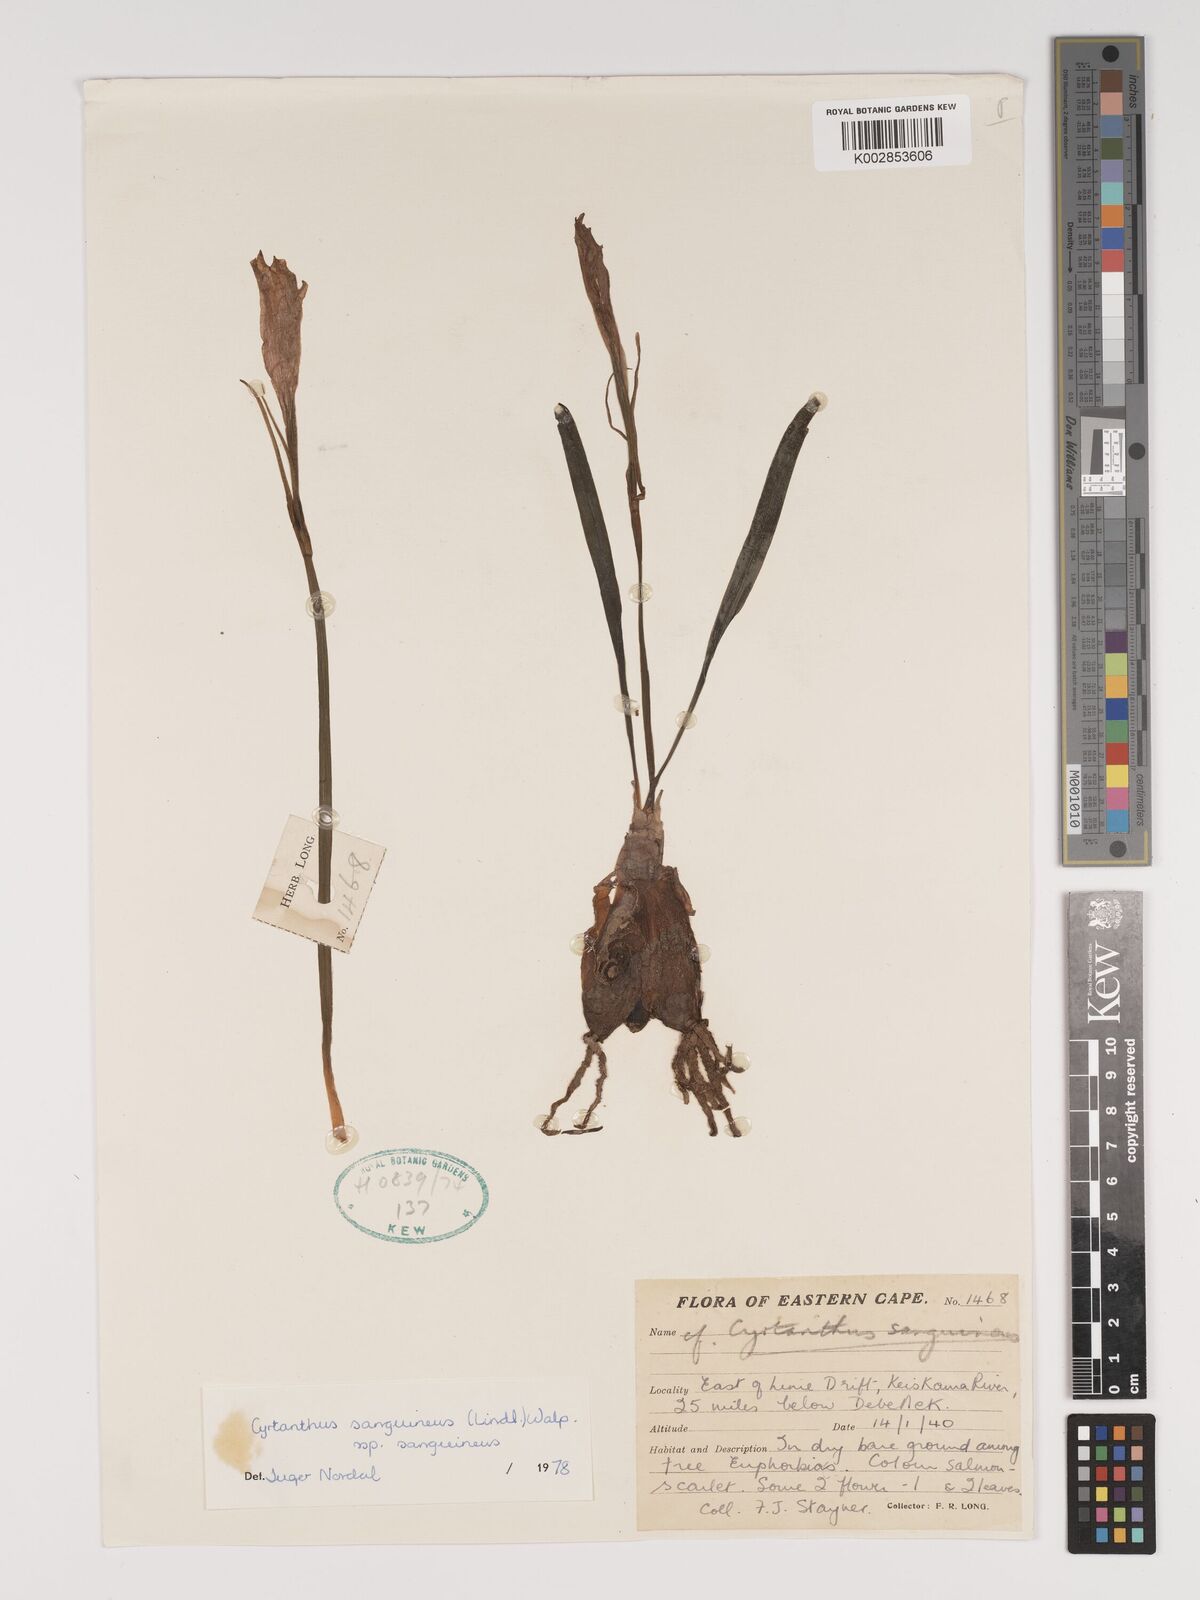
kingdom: Plantae
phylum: Tracheophyta
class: Liliopsida
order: Asparagales
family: Amaryllidaceae
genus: Cyrtanthus
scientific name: Cyrtanthus sanguineus
